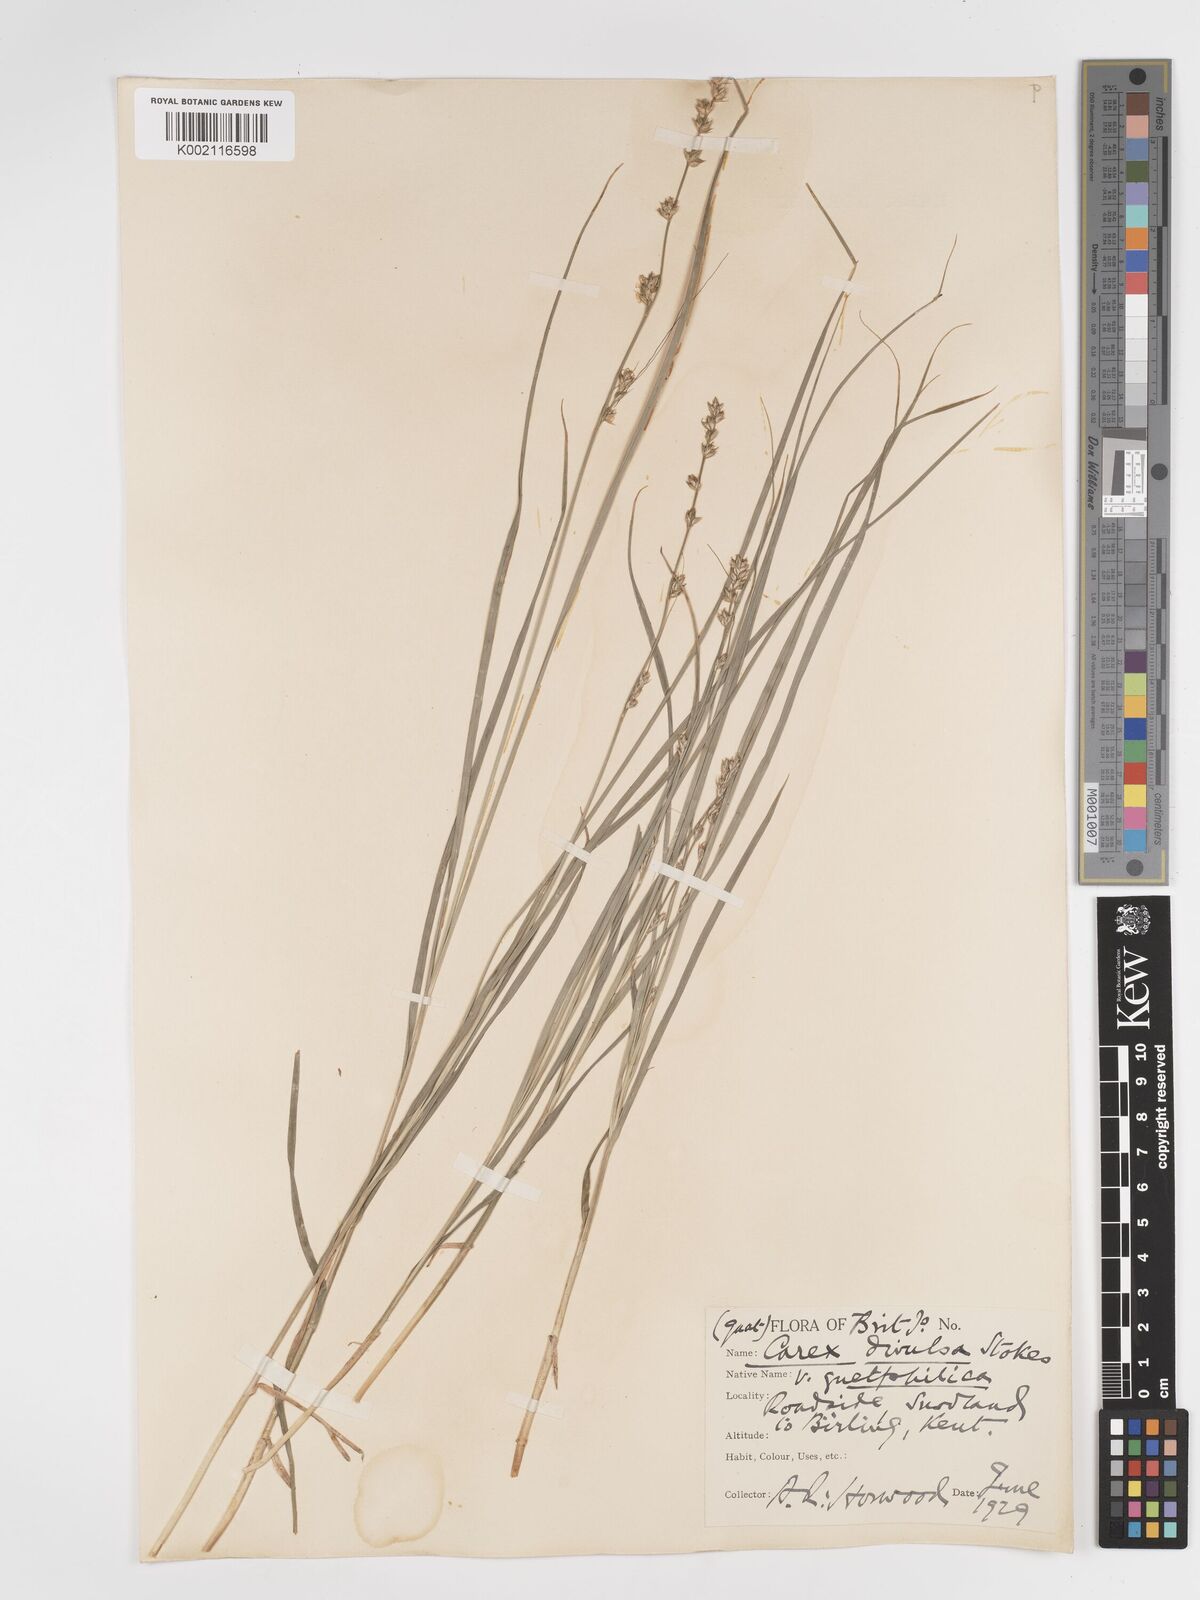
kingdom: Plantae
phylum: Tracheophyta
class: Liliopsida
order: Poales
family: Cyperaceae
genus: Carex
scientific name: Carex divulsa
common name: Grassland sedge
